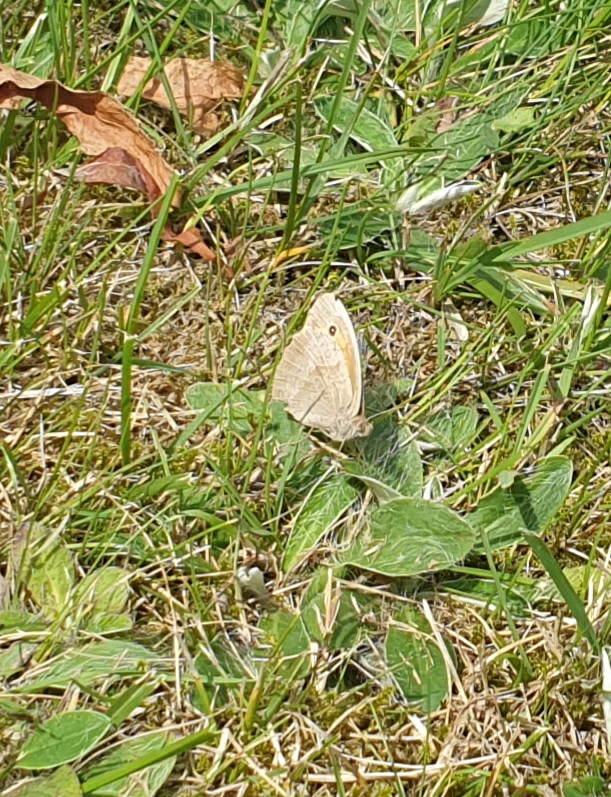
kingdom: Animalia
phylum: Arthropoda
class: Insecta
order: Lepidoptera
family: Nymphalidae
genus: Maniola
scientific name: Maniola jurtina
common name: Græsrandøje
